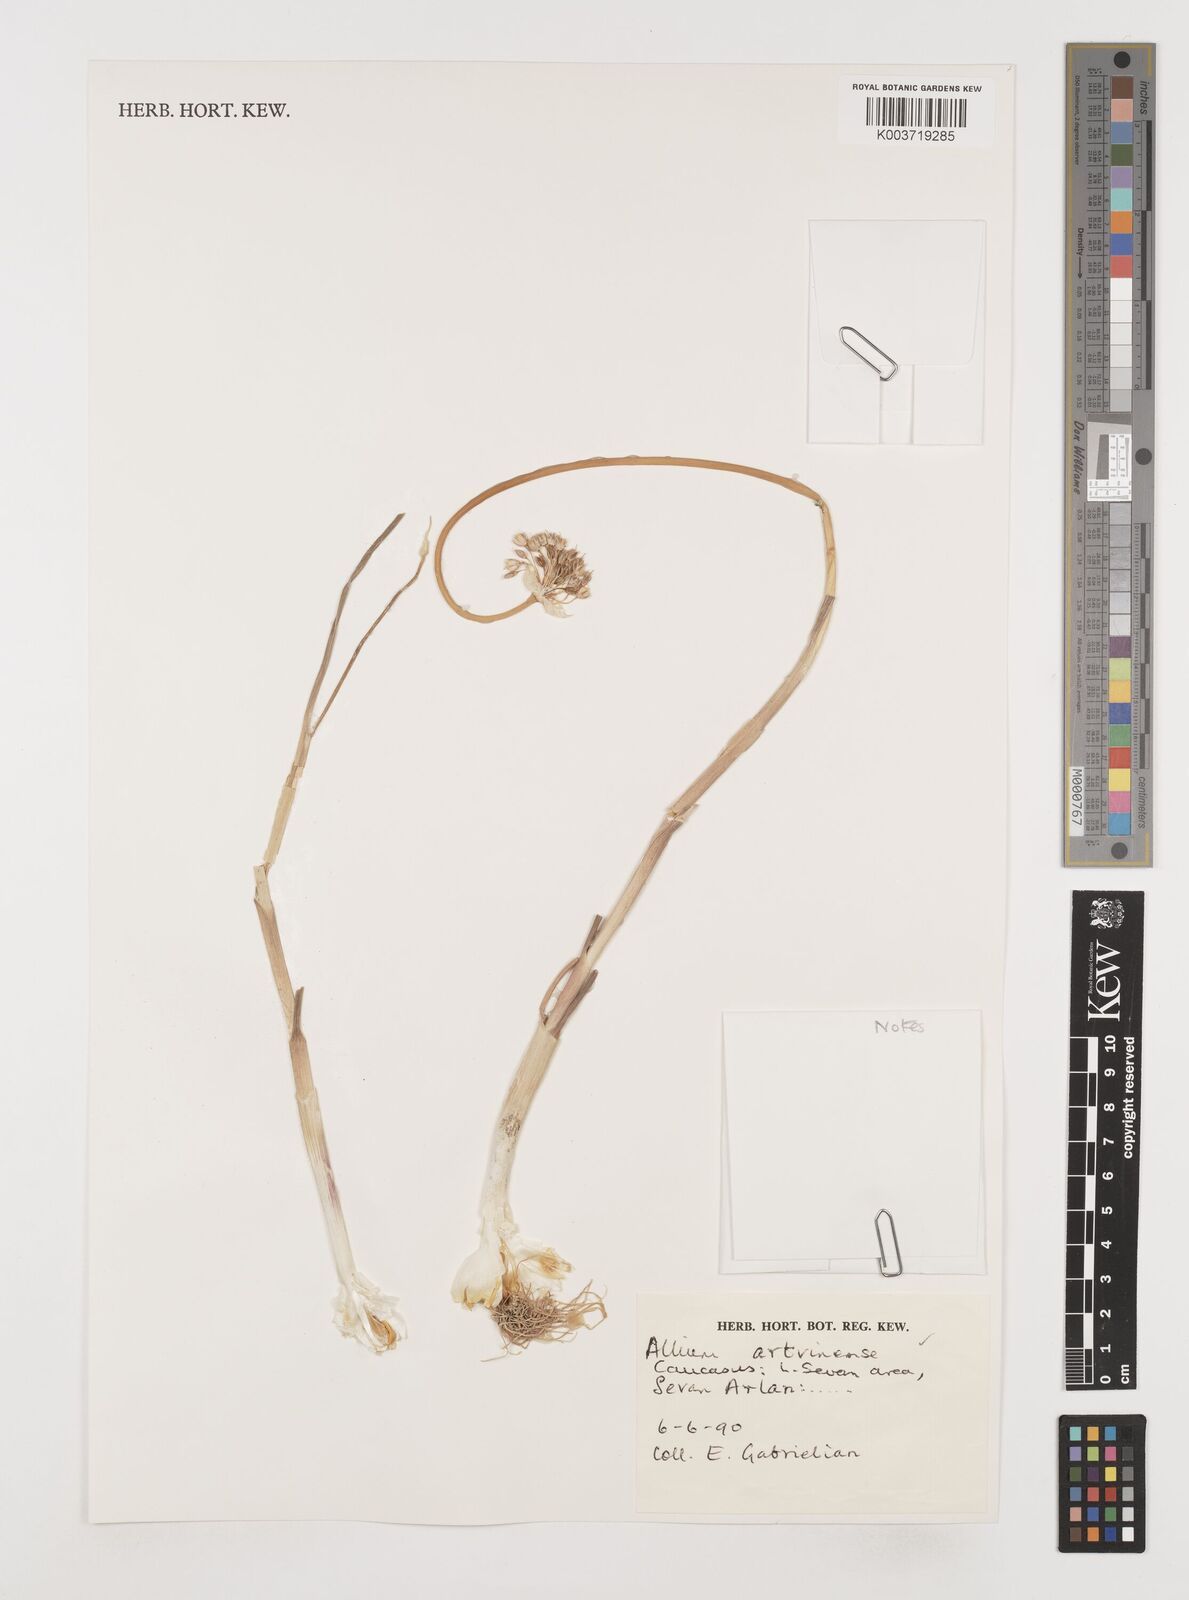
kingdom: Plantae
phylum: Tracheophyta
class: Liliopsida
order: Asparagales
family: Amaryllidaceae
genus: Allium
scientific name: Allium affine
